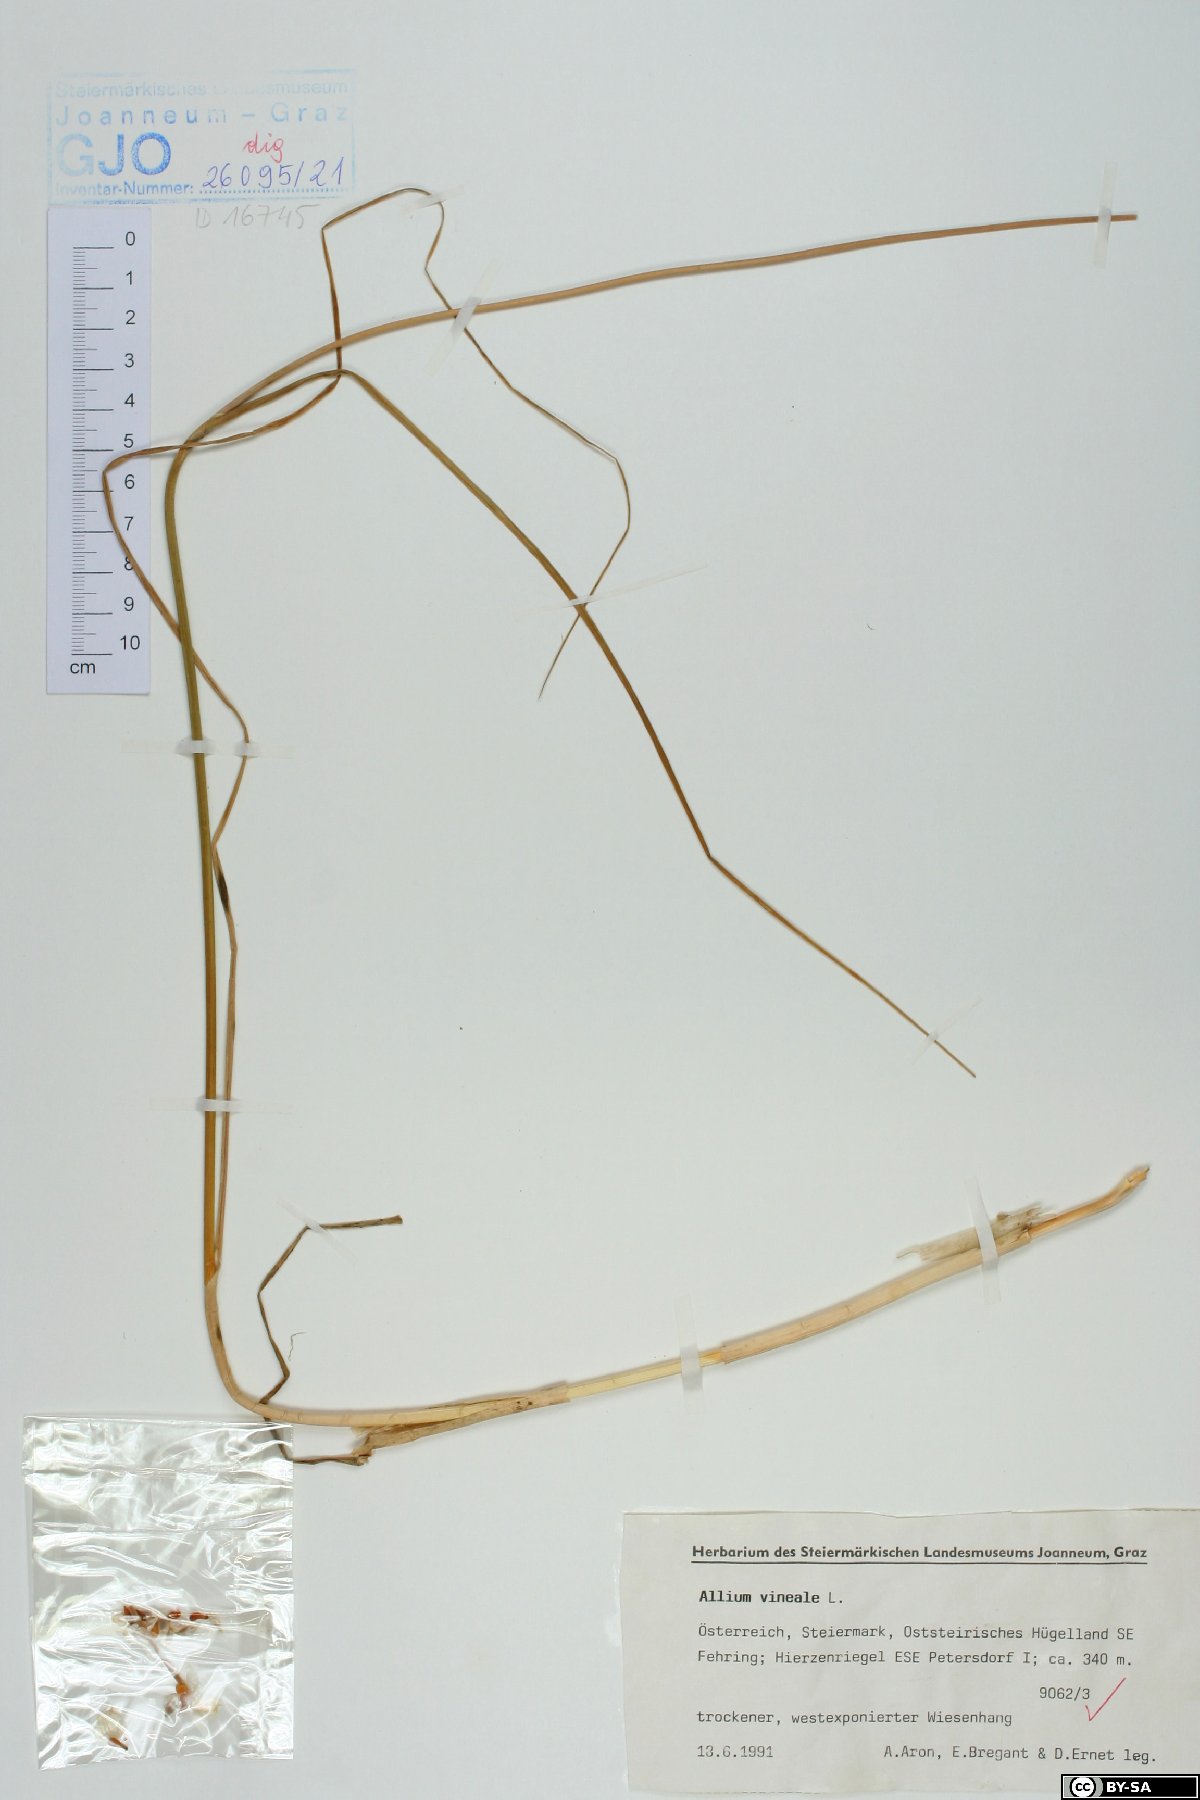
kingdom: Plantae
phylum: Tracheophyta
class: Liliopsida
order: Asparagales
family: Amaryllidaceae
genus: Allium
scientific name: Allium vineale
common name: Crow garlic
